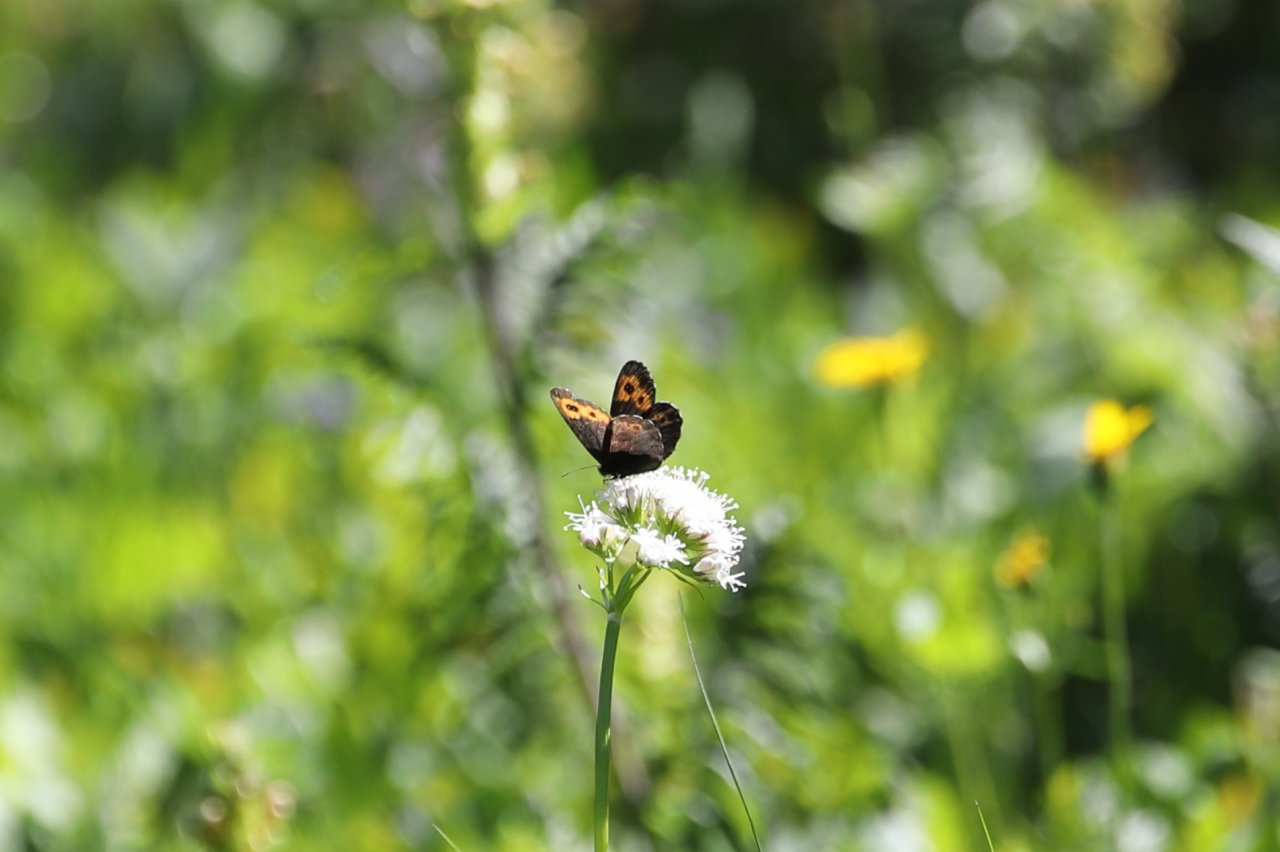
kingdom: Animalia
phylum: Arthropoda
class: Insecta
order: Lepidoptera
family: Nymphalidae
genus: Erebia
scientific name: Erebia vidleri
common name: Vidler's Alpine
